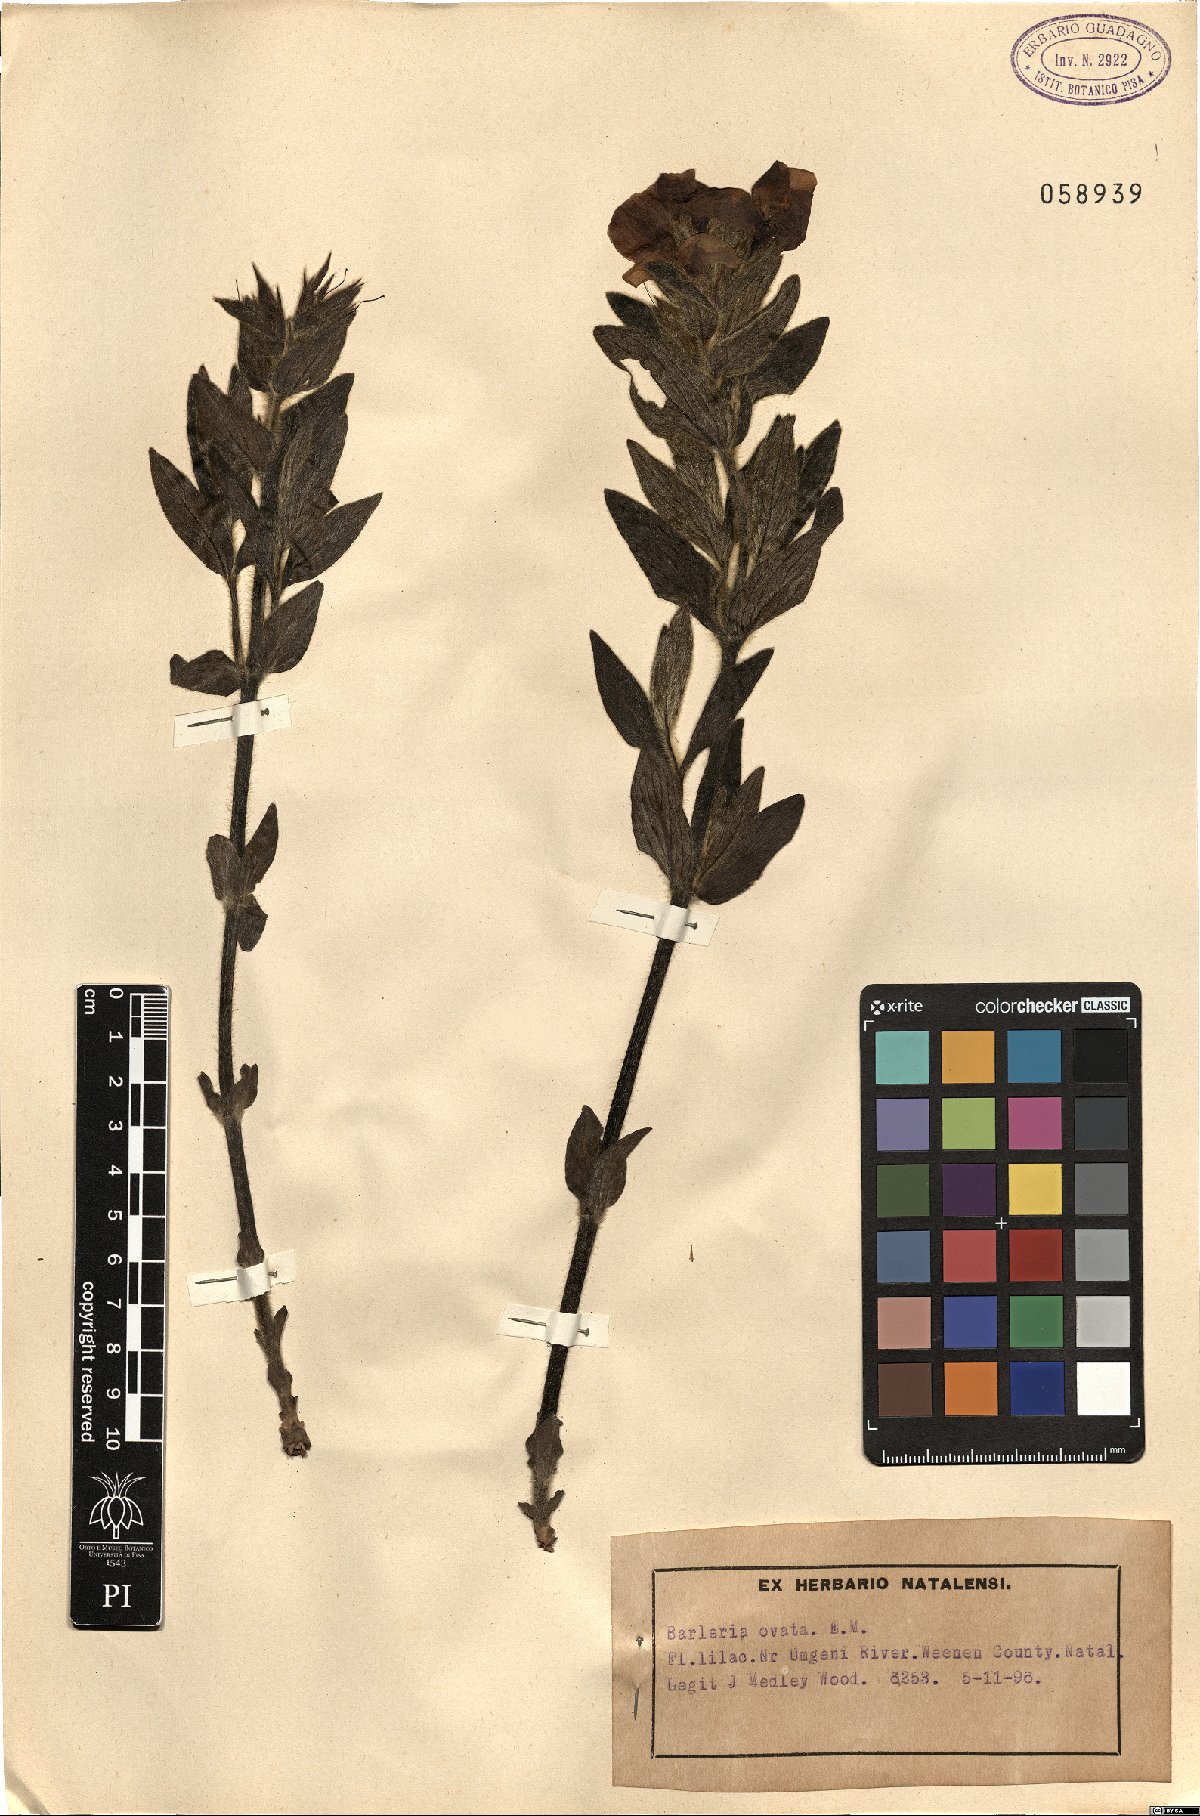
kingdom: Plantae
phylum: Tracheophyta
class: Magnoliopsida
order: Lamiales
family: Acanthaceae
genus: Barleria
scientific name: Barleria ovata
